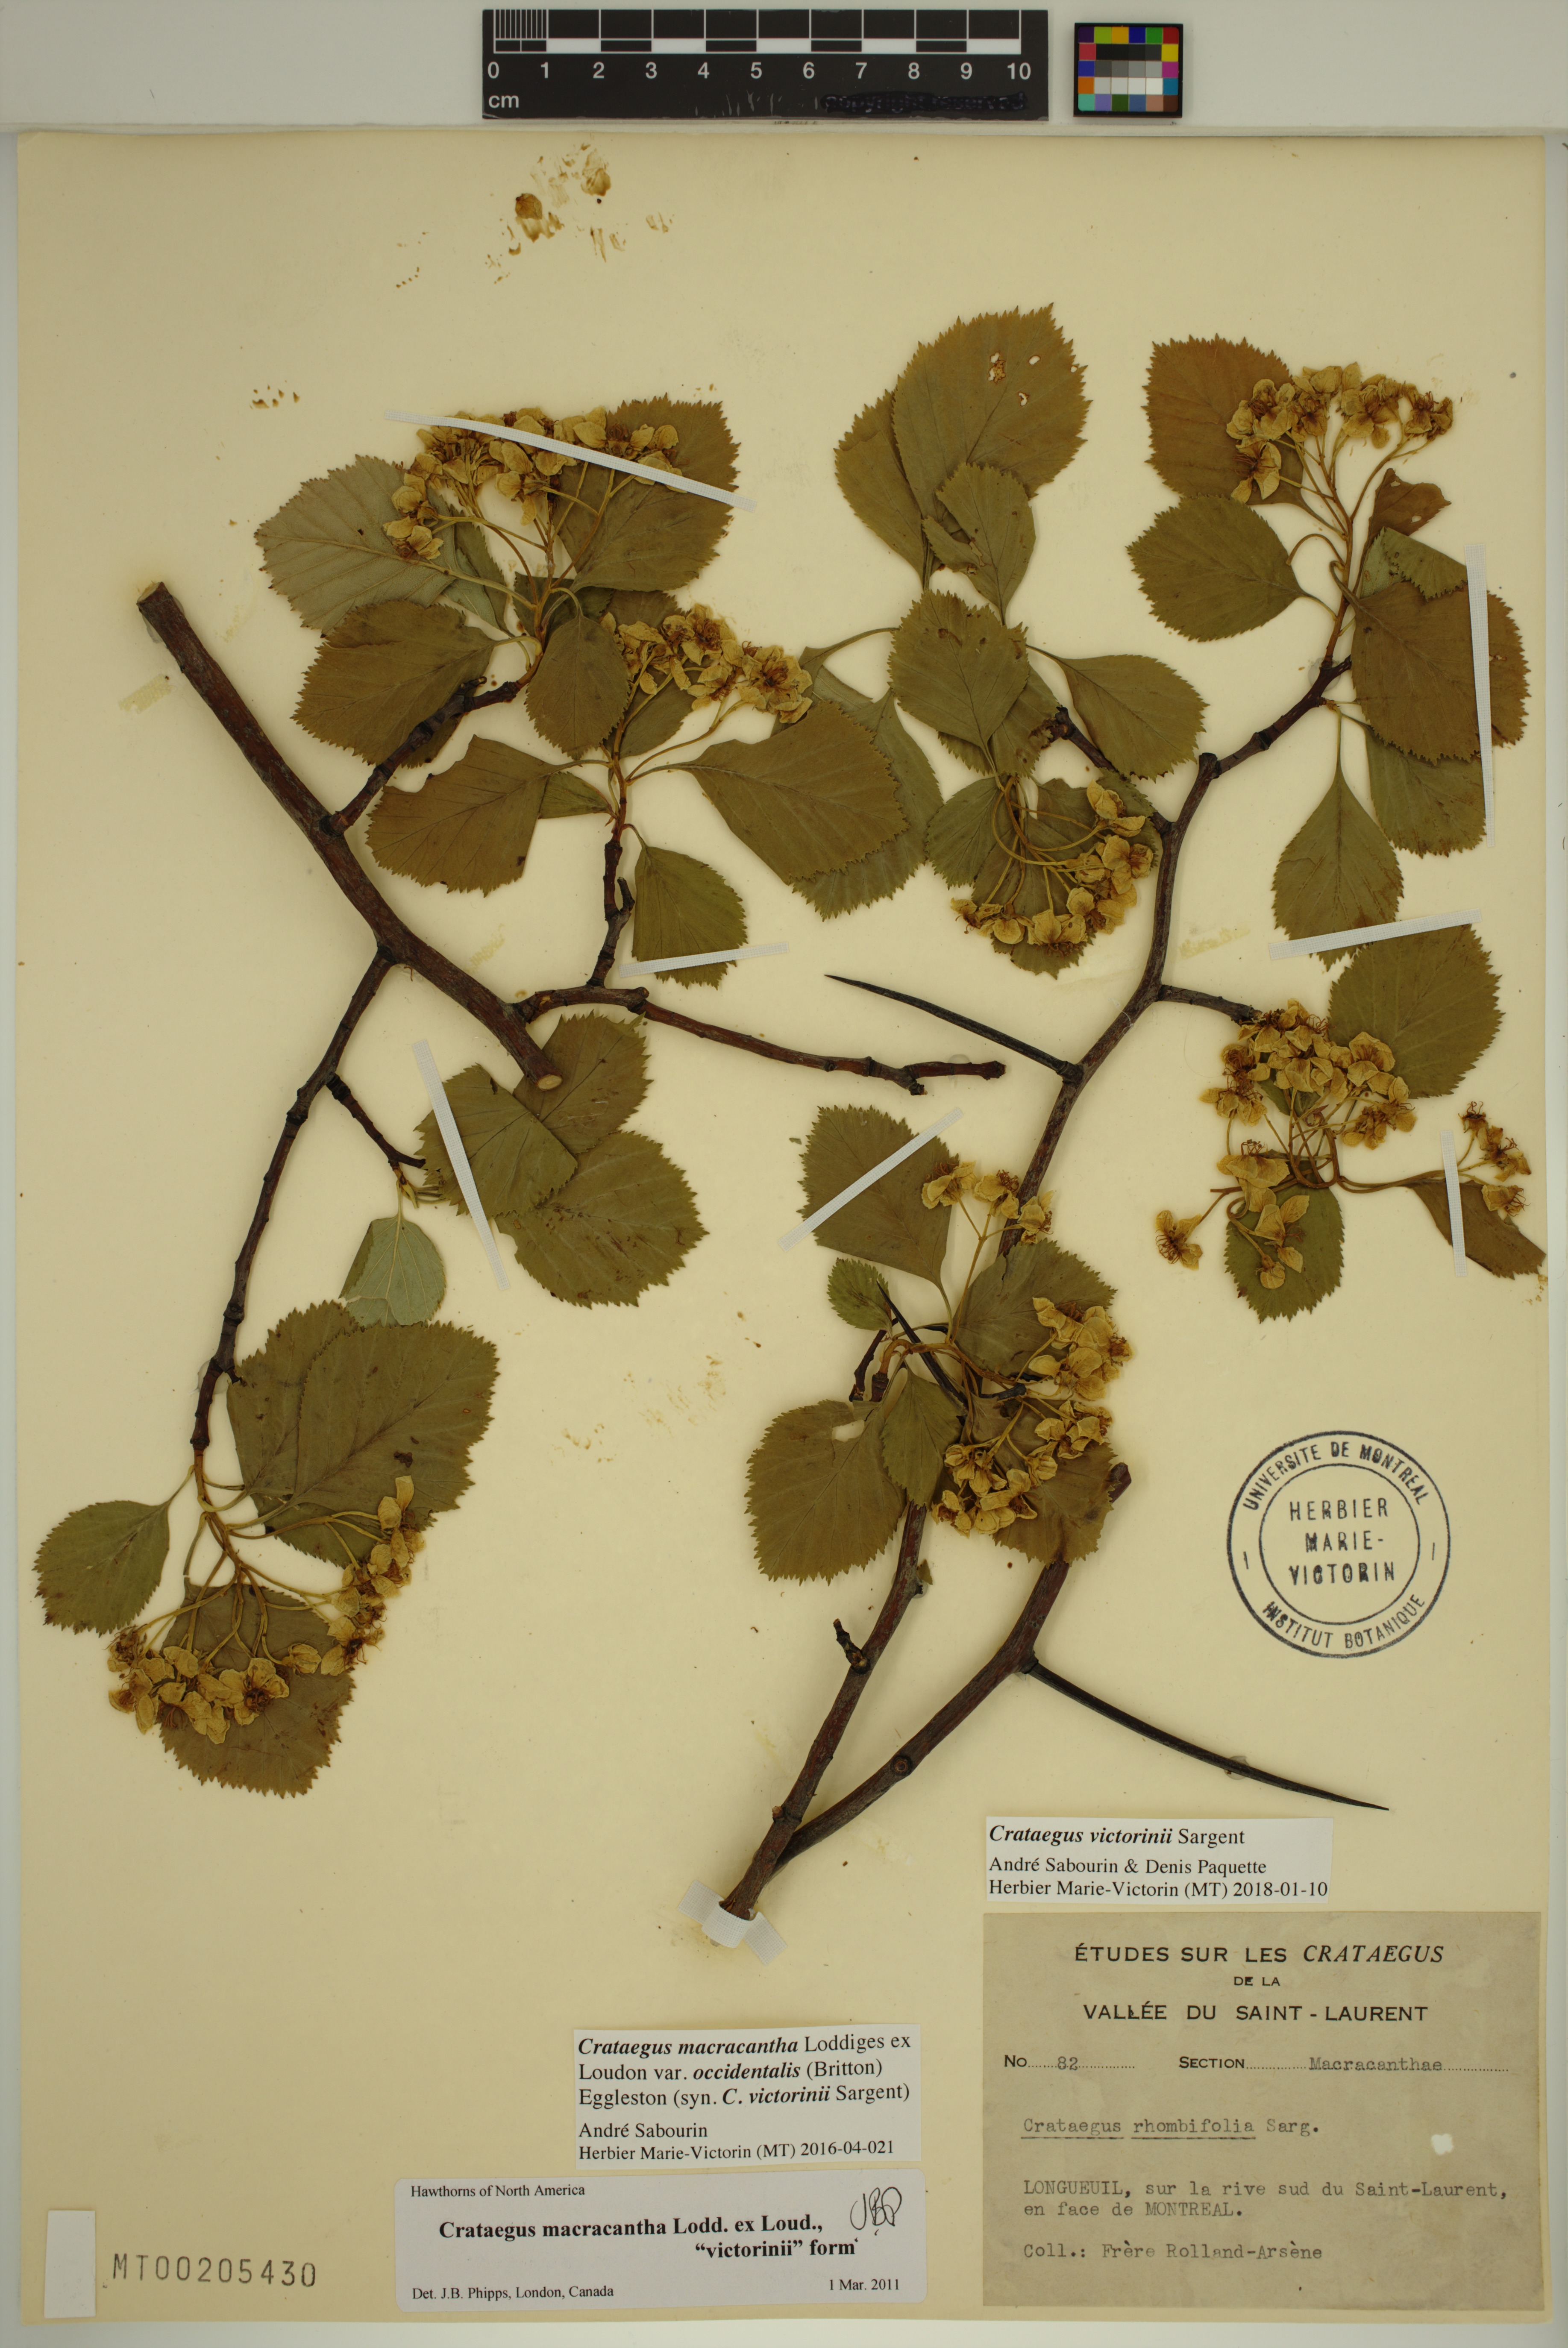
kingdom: Plantae
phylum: Tracheophyta
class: Magnoliopsida
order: Rosales
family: Rosaceae
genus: Crataegus
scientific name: Crataegus macracantha
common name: Large-thorn hawthorn
